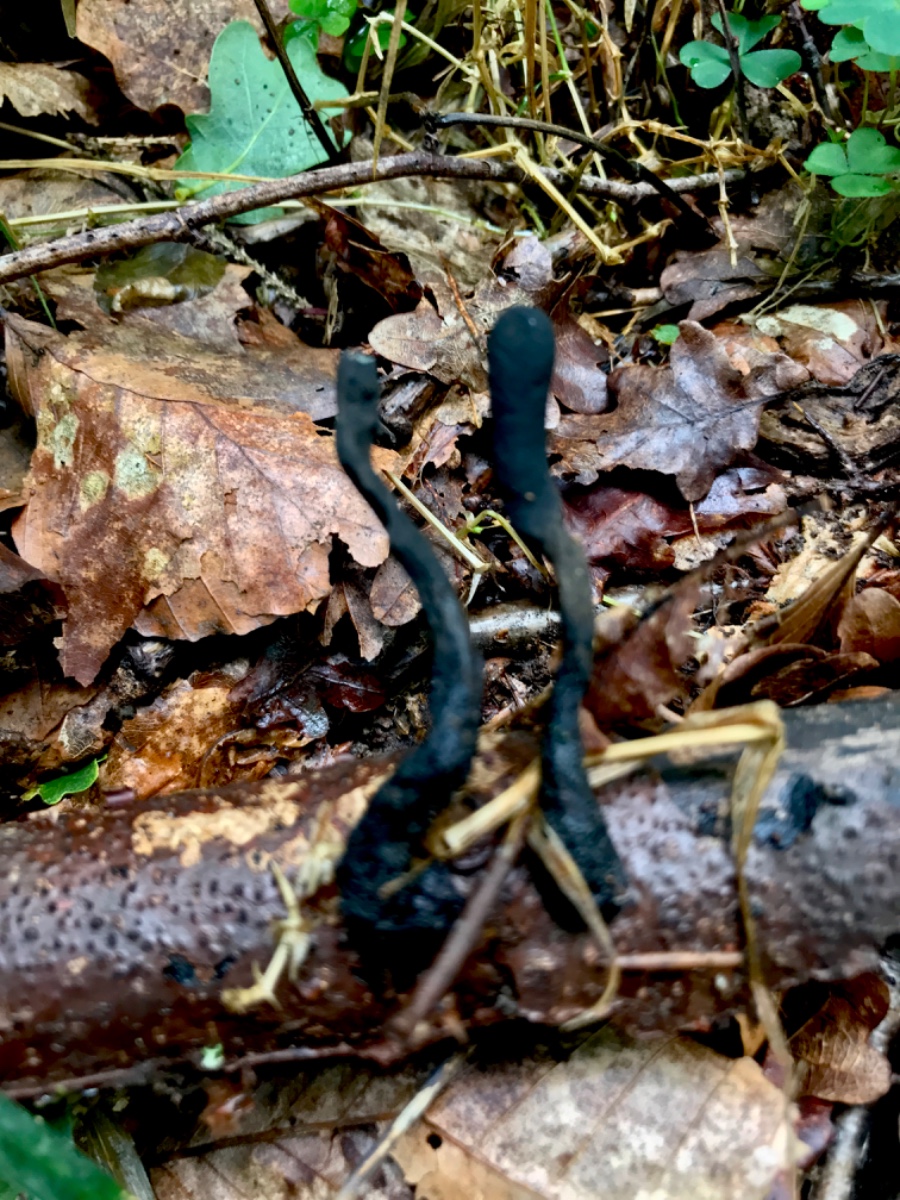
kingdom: Fungi
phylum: Ascomycota
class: Sordariomycetes
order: Xylariales
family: Xylariaceae
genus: Xylaria
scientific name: Xylaria longipes
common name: slank stødsvamp
